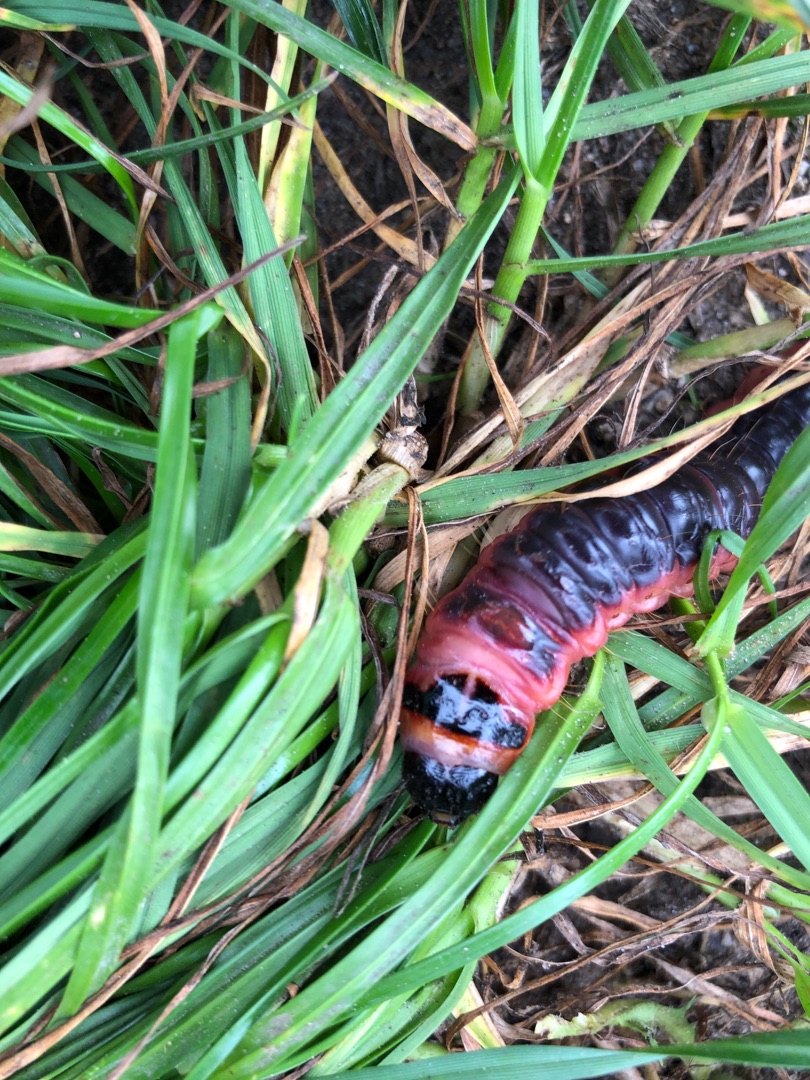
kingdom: Animalia
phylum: Arthropoda
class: Insecta
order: Lepidoptera
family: Cossidae
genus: Cossus
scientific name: Cossus cossus
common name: Pileborer
